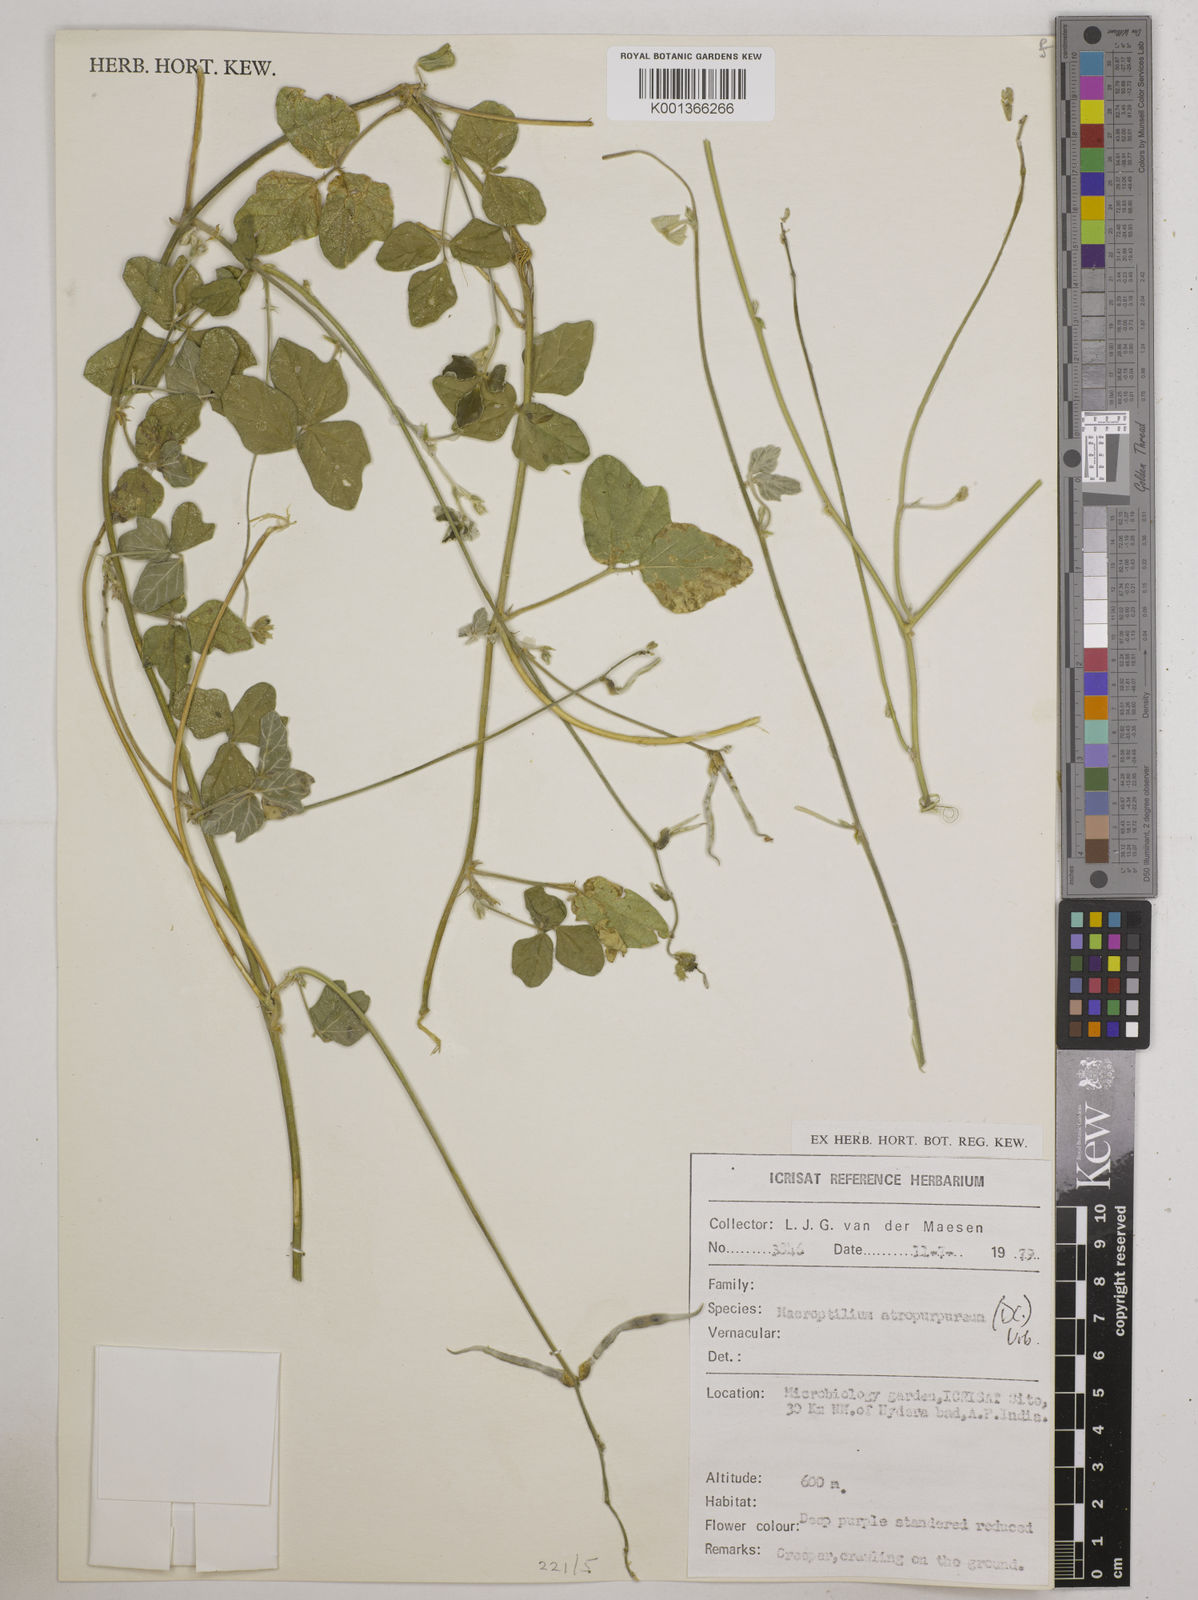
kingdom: Plantae
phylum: Tracheophyta
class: Magnoliopsida
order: Fabales
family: Fabaceae
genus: Macroptilium
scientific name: Macroptilium atropurpureum
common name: Purple bushbean
